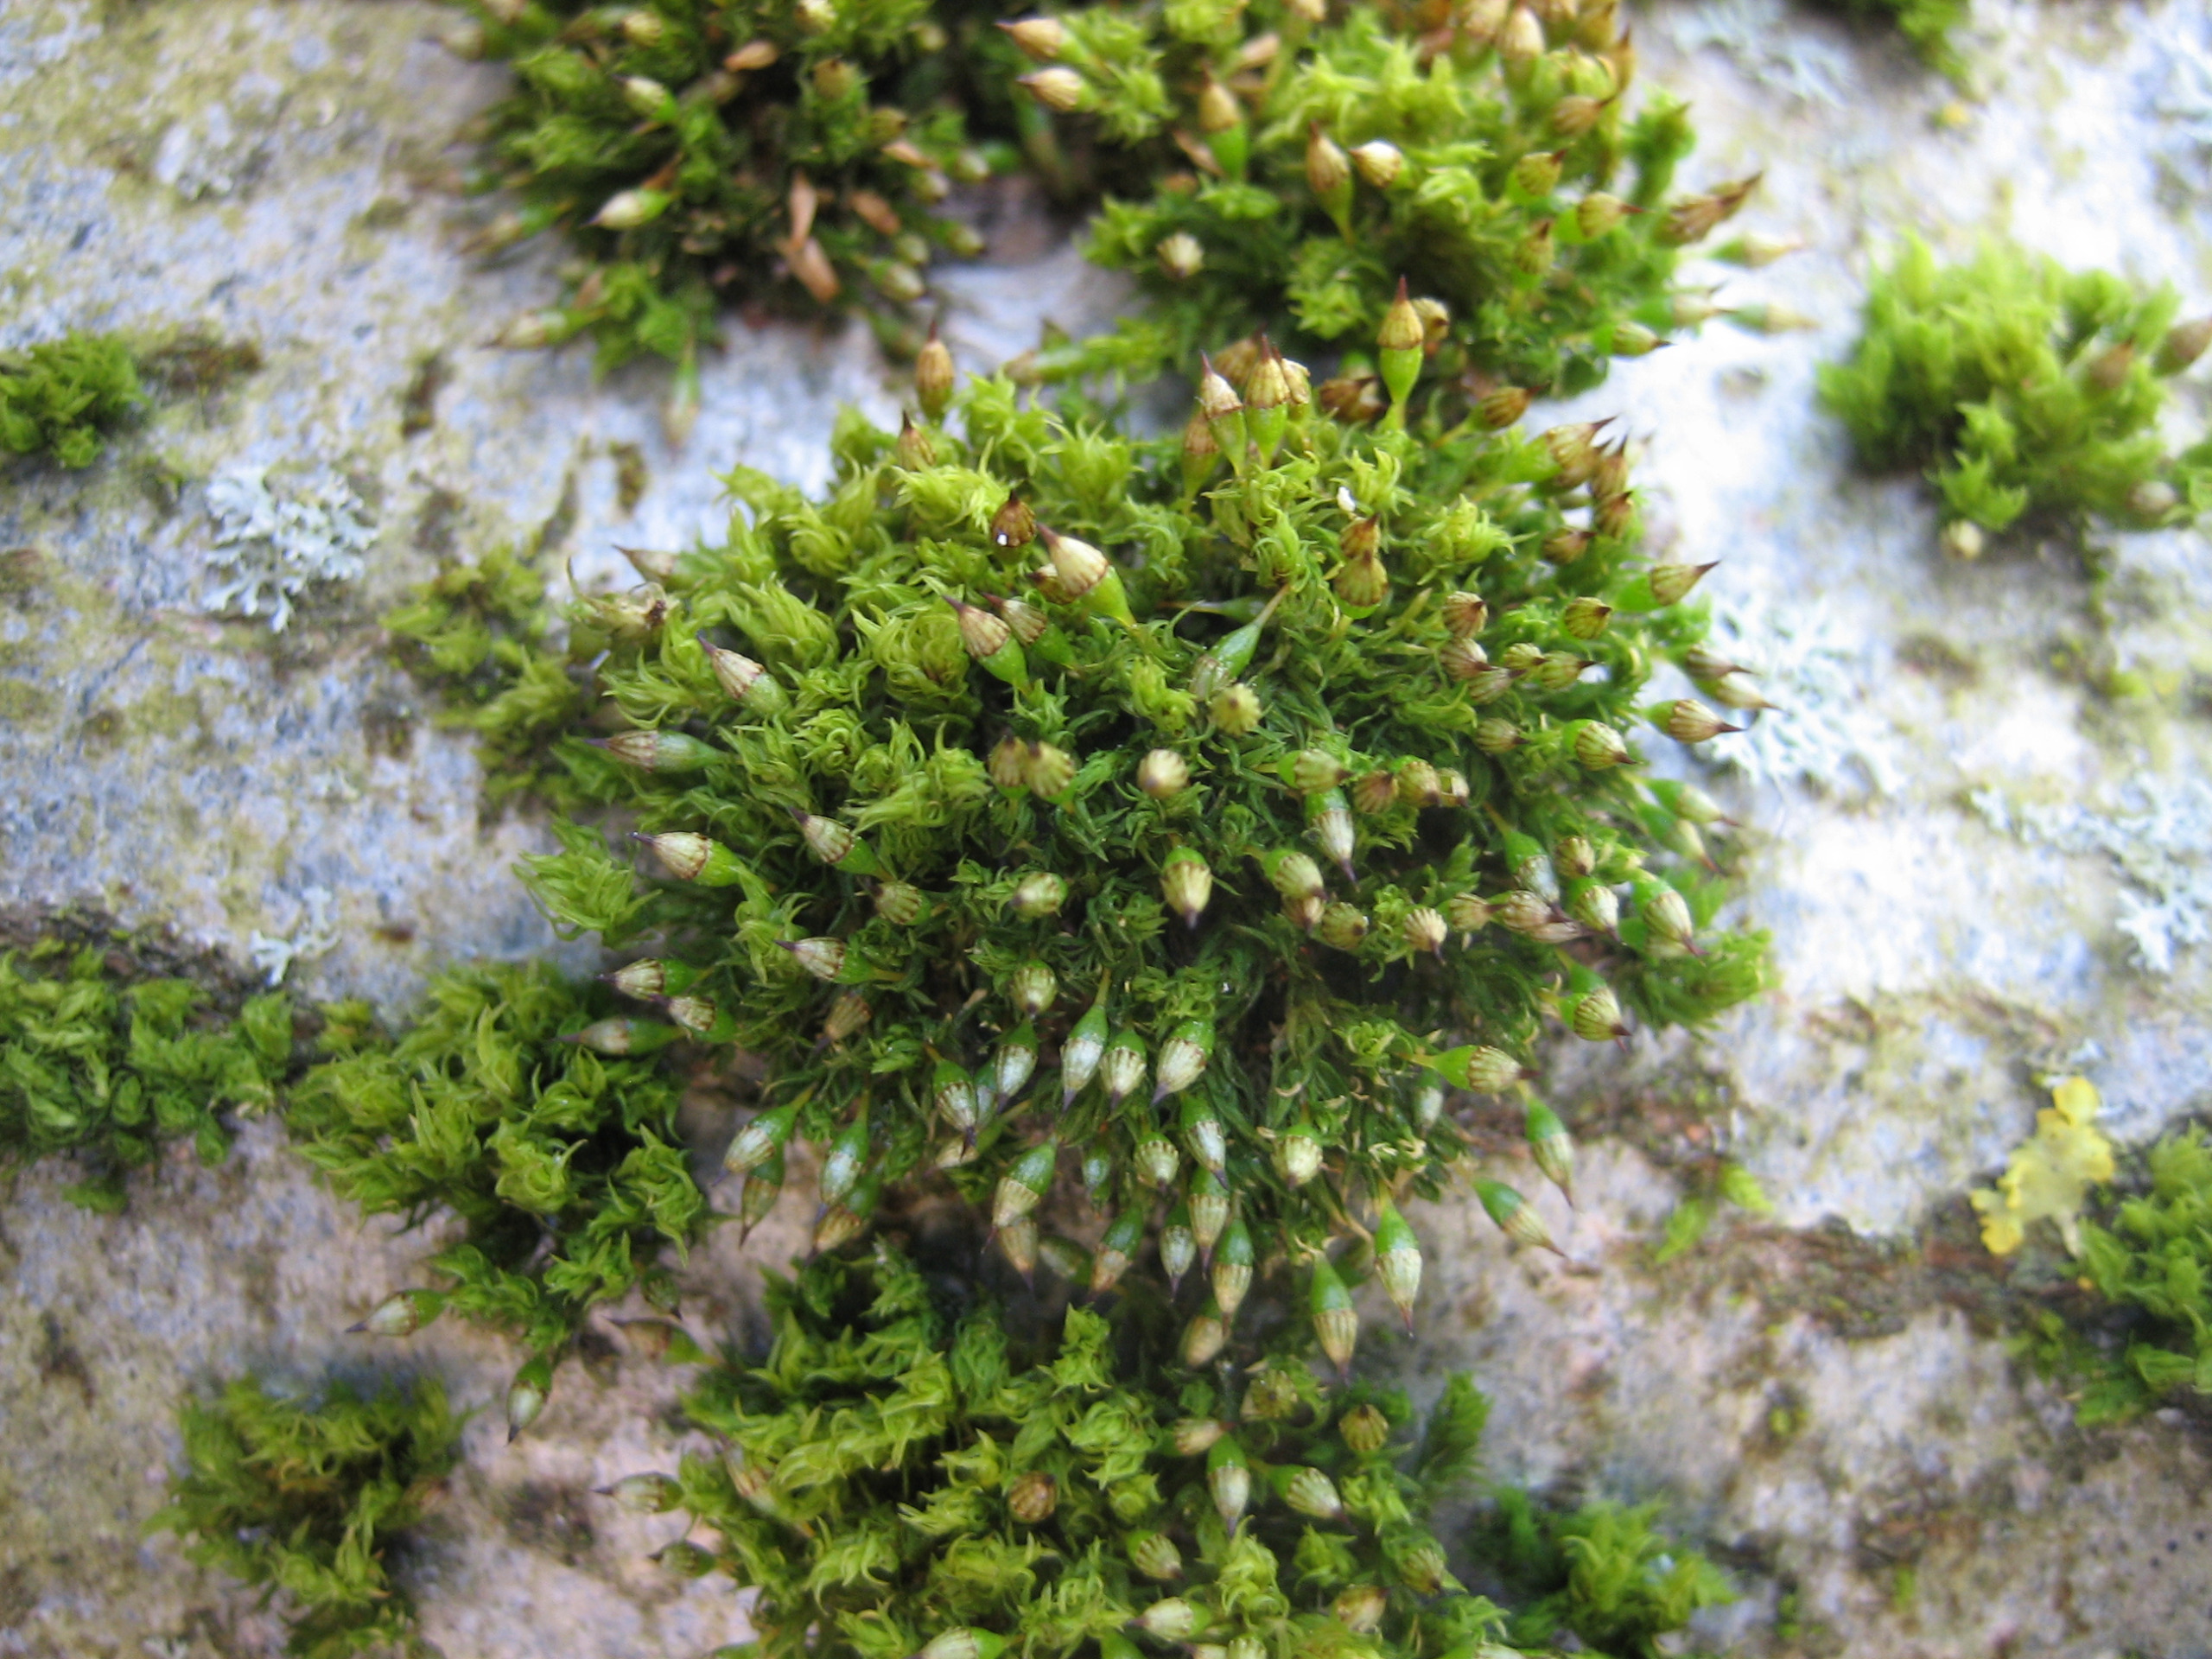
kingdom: Plantae
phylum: Bryophyta
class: Bryopsida
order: Orthotrichales
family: Orthotrichaceae
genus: Orthotrichum
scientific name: Orthotrichum pulchellum
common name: Smuk furehætte
